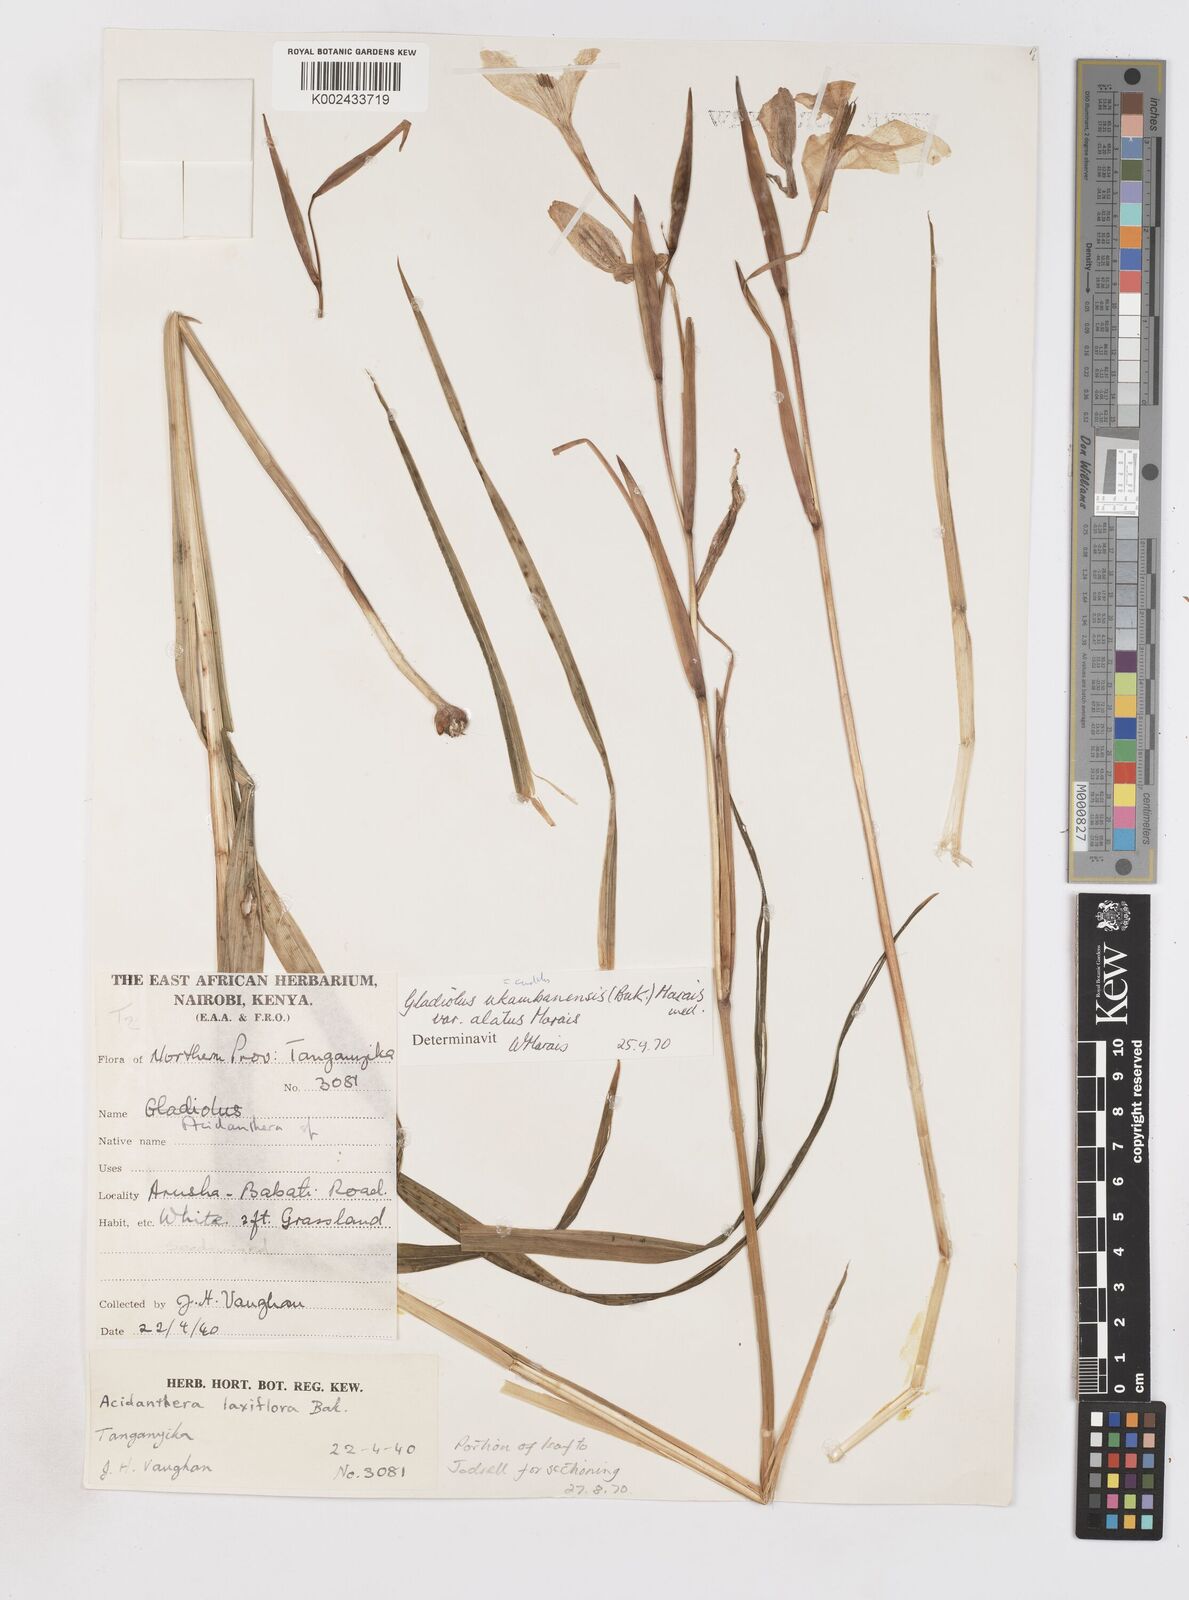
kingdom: Plantae
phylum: Tracheophyta
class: Liliopsida
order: Asparagales
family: Iridaceae
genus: Gladiolus
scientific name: Gladiolus candidus
